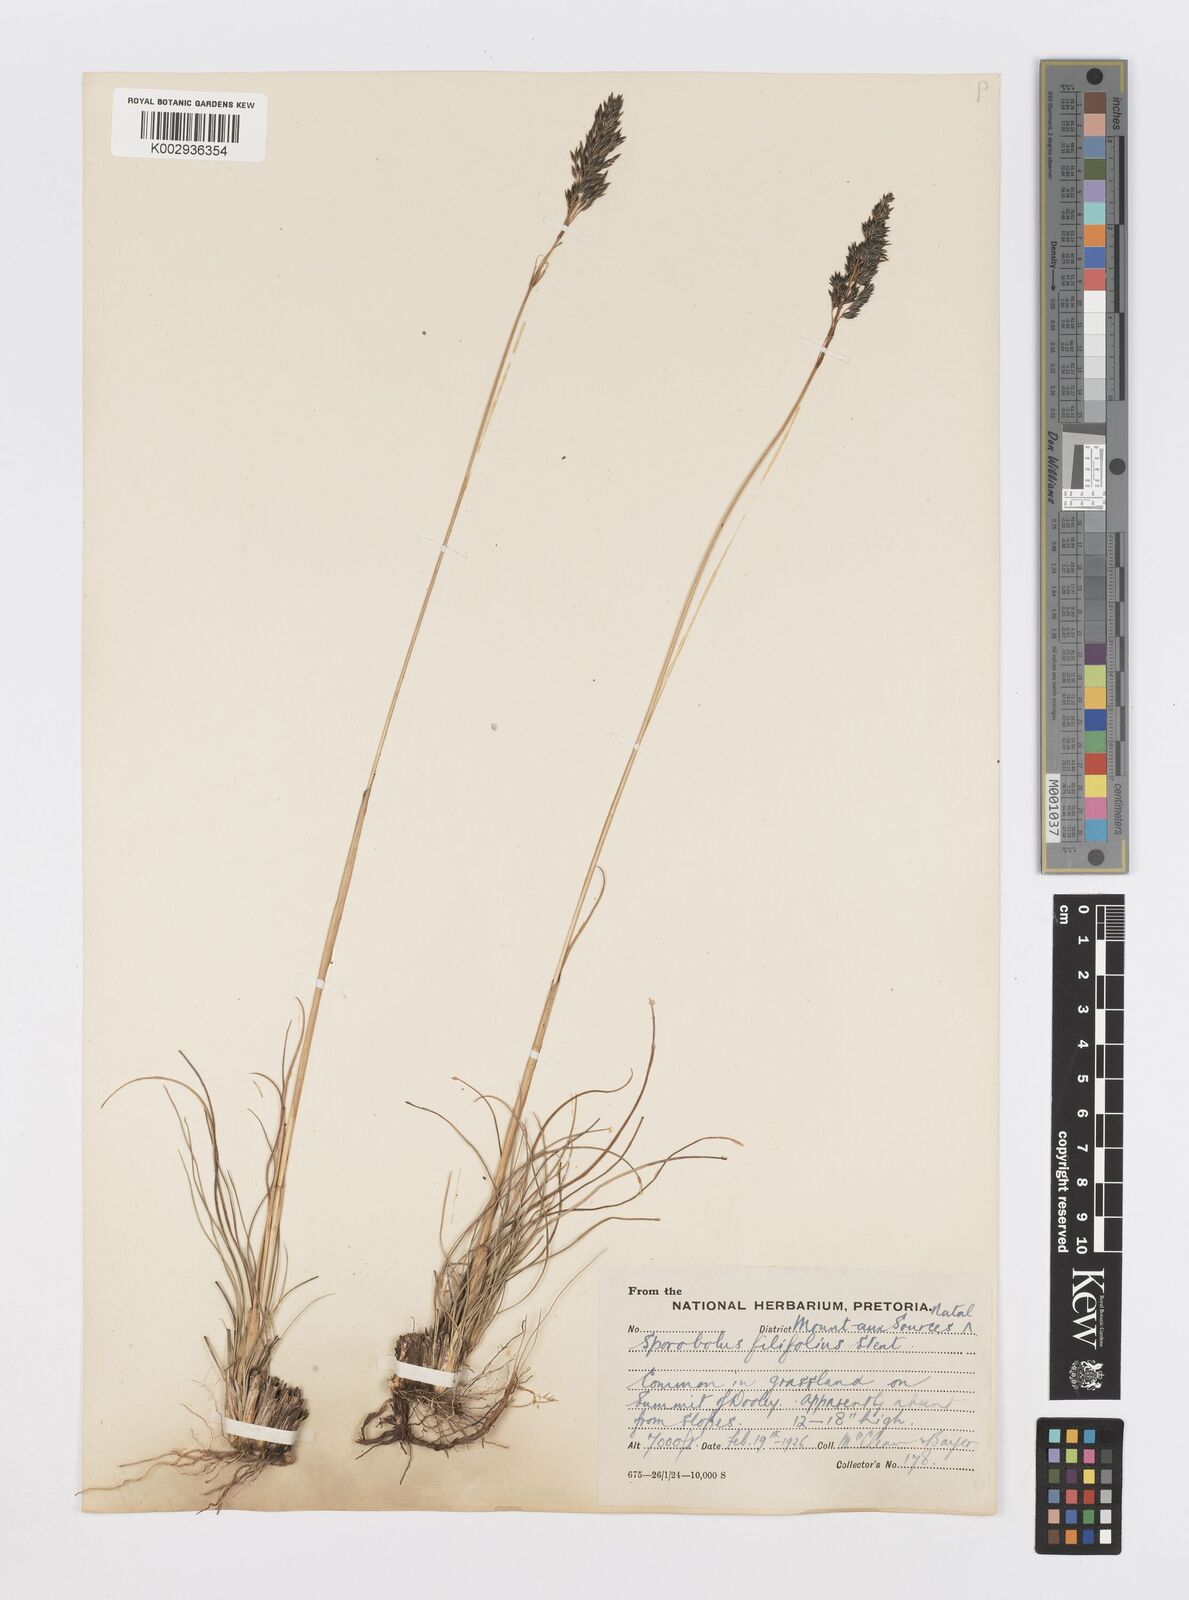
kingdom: Plantae
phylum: Tracheophyta
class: Liliopsida
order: Poales
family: Poaceae
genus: Sporobolus
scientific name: Sporobolus centrifugus
